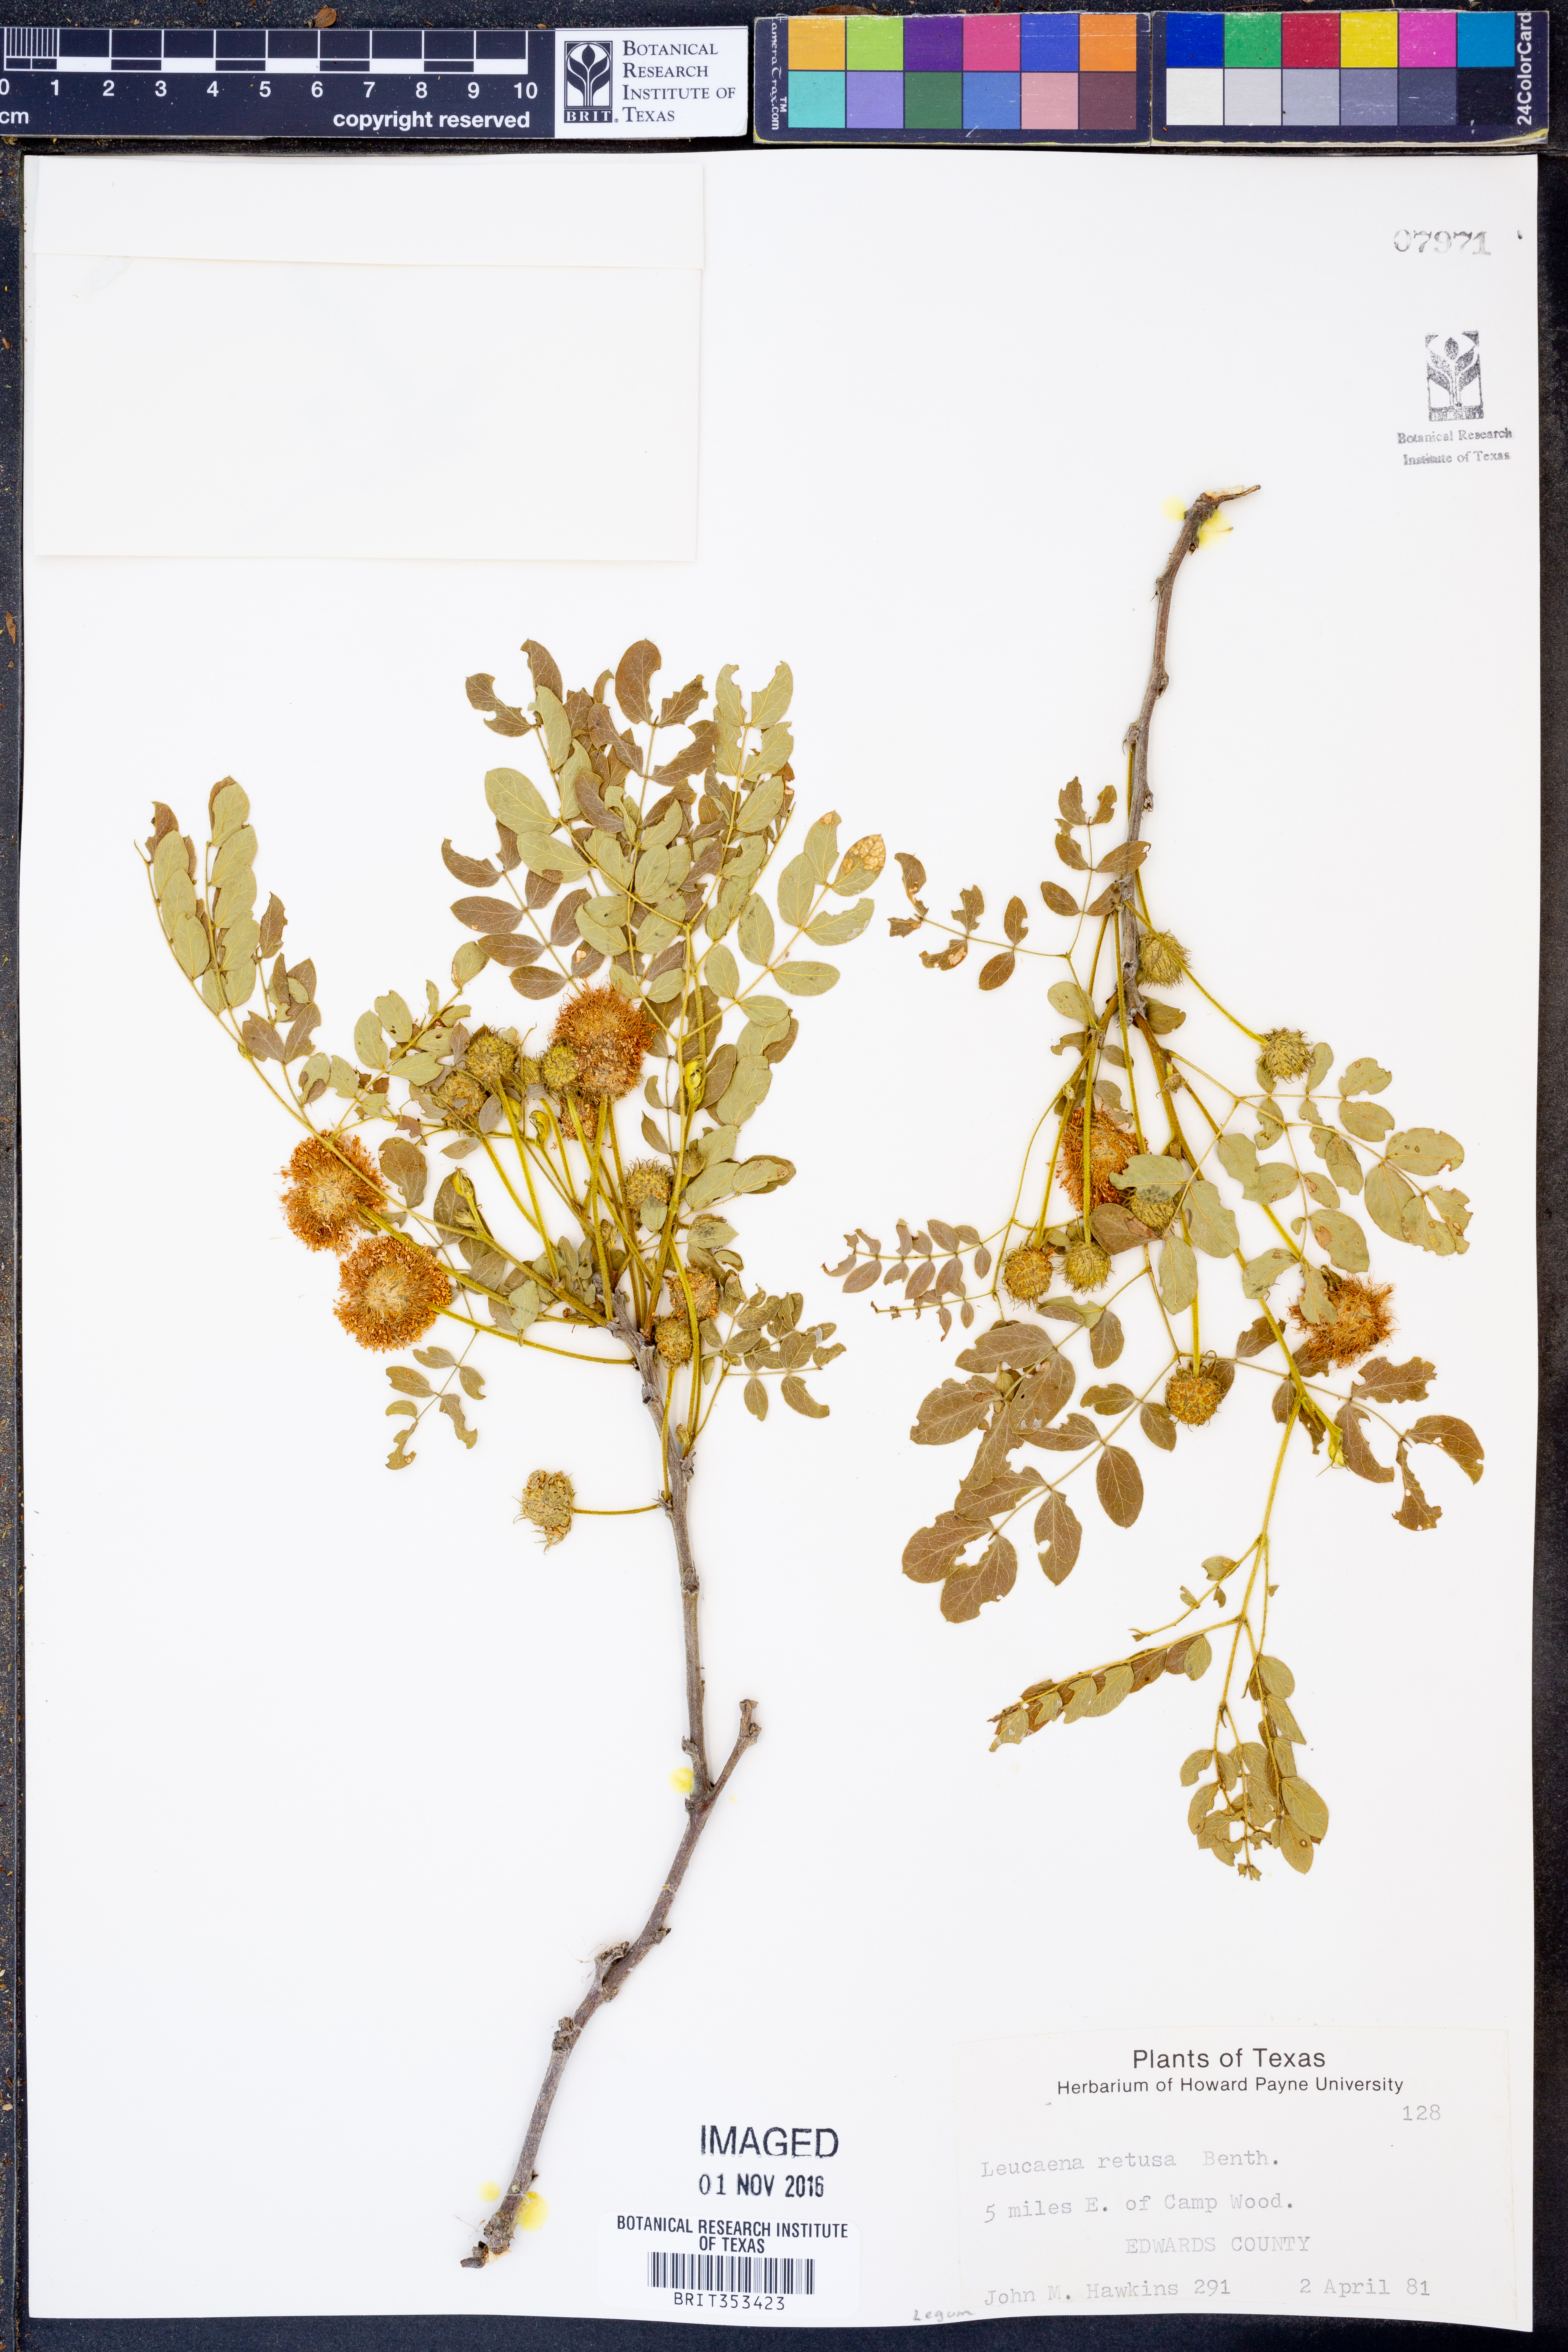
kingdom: Plantae
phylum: Tracheophyta
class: Magnoliopsida
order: Fabales
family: Fabaceae
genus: Leucaena
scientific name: Leucaena retusa
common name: Littleleaf leadtree
